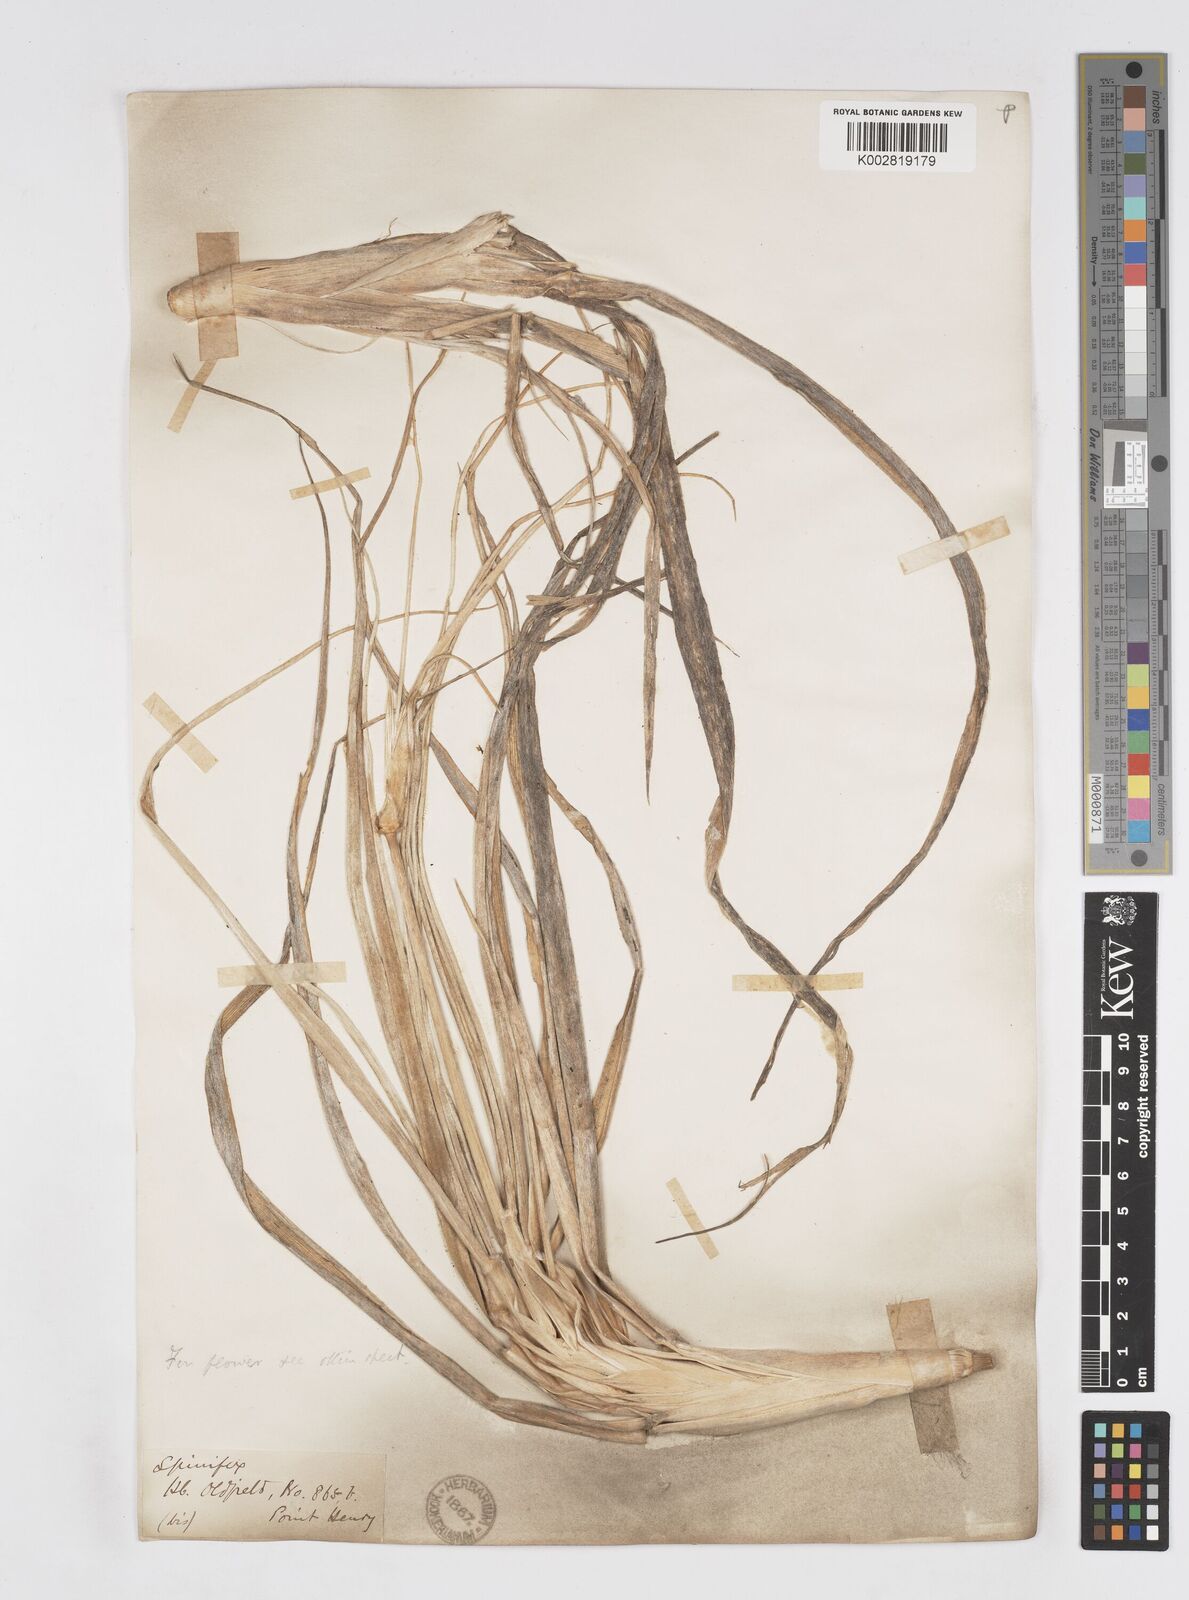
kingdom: Plantae
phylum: Tracheophyta
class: Liliopsida
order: Poales
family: Poaceae
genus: Spinifex
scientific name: Spinifex sericeus
